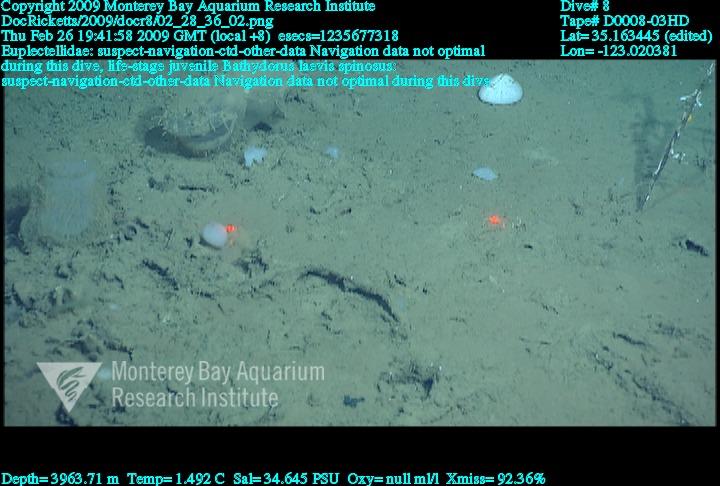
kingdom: Animalia
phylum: Porifera
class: Hexactinellida
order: Lyssacinosida
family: Euplectellidae
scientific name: Euplectellidae
